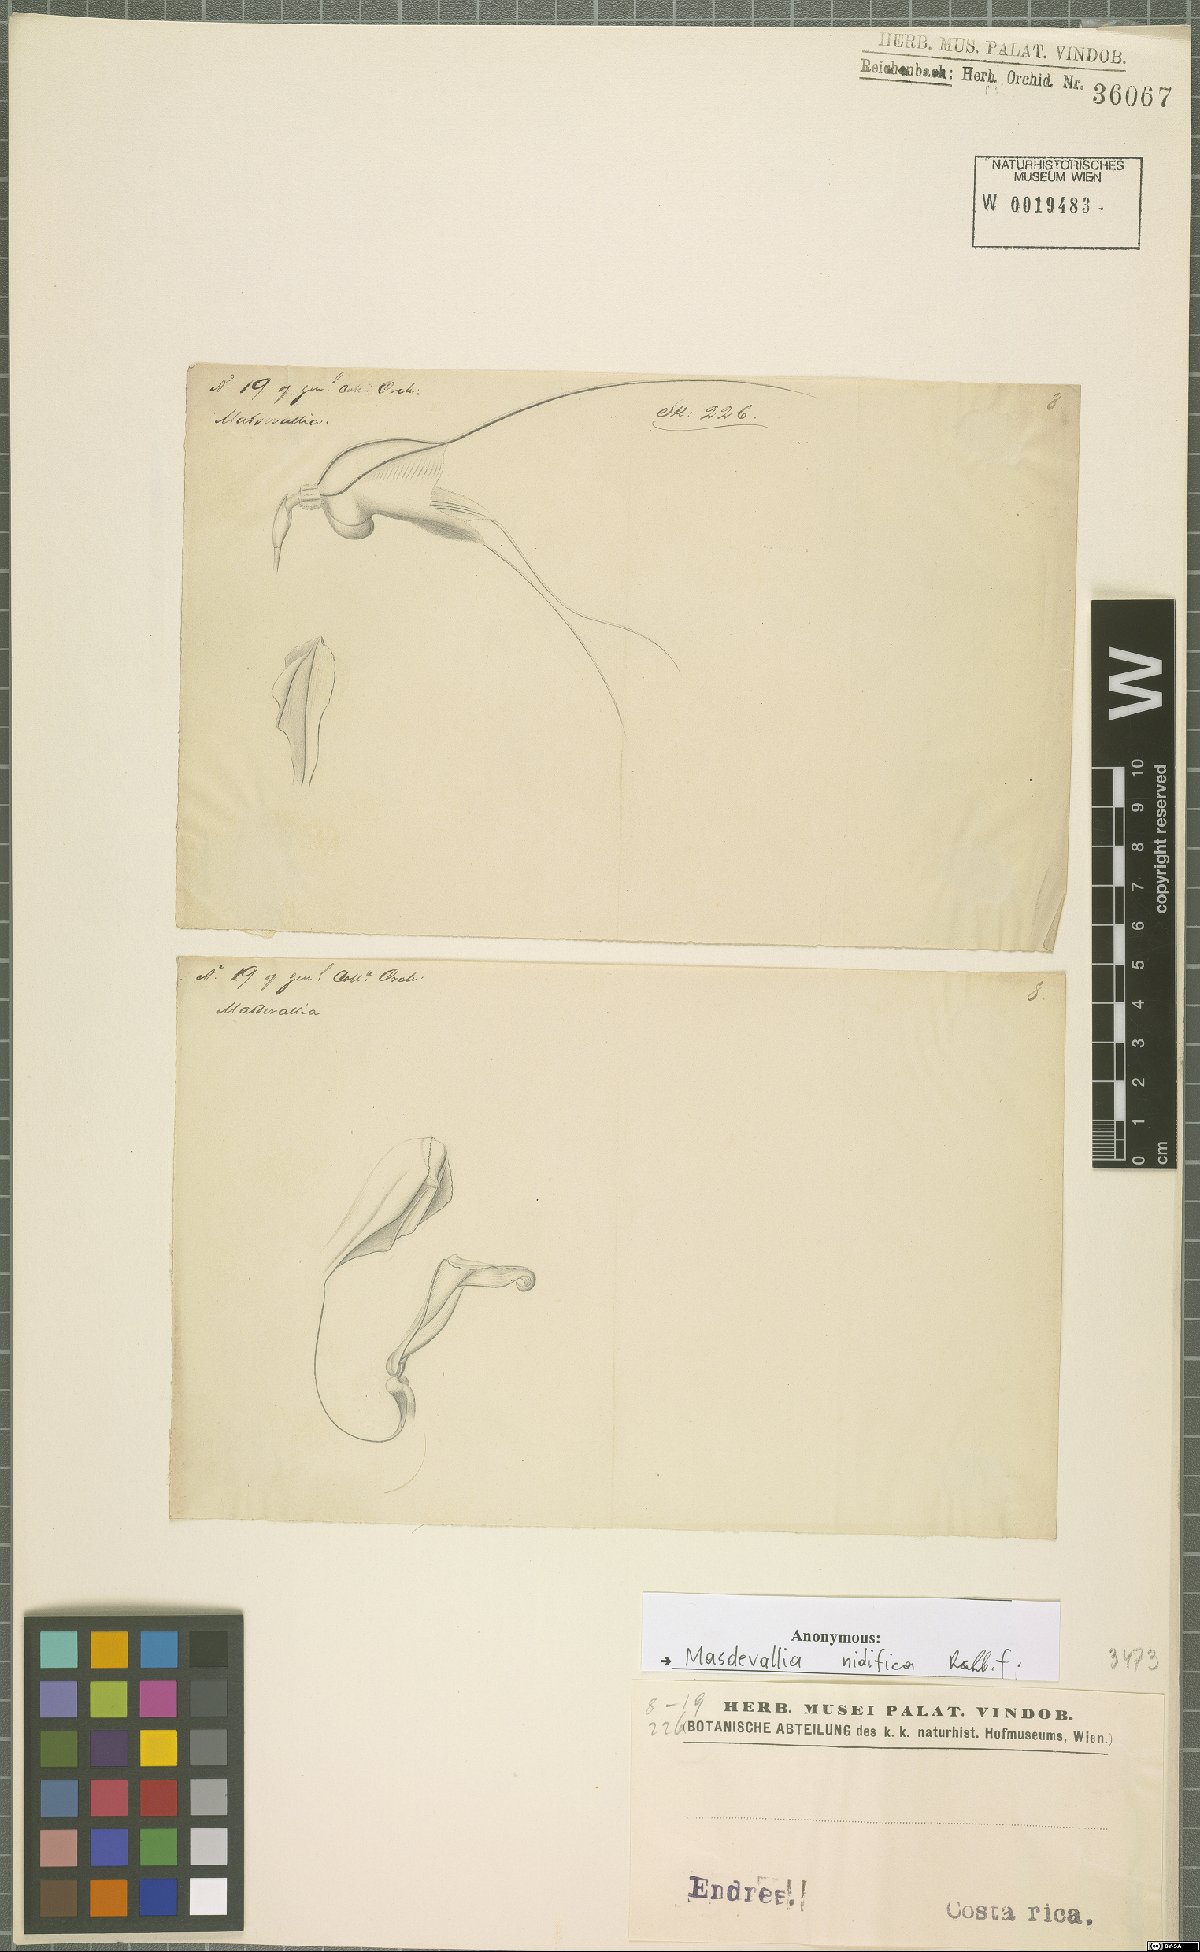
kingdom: Plantae
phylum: Tracheophyta
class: Liliopsida
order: Asparagales
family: Orchidaceae
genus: Masdevallia
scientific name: Masdevallia nidifica
